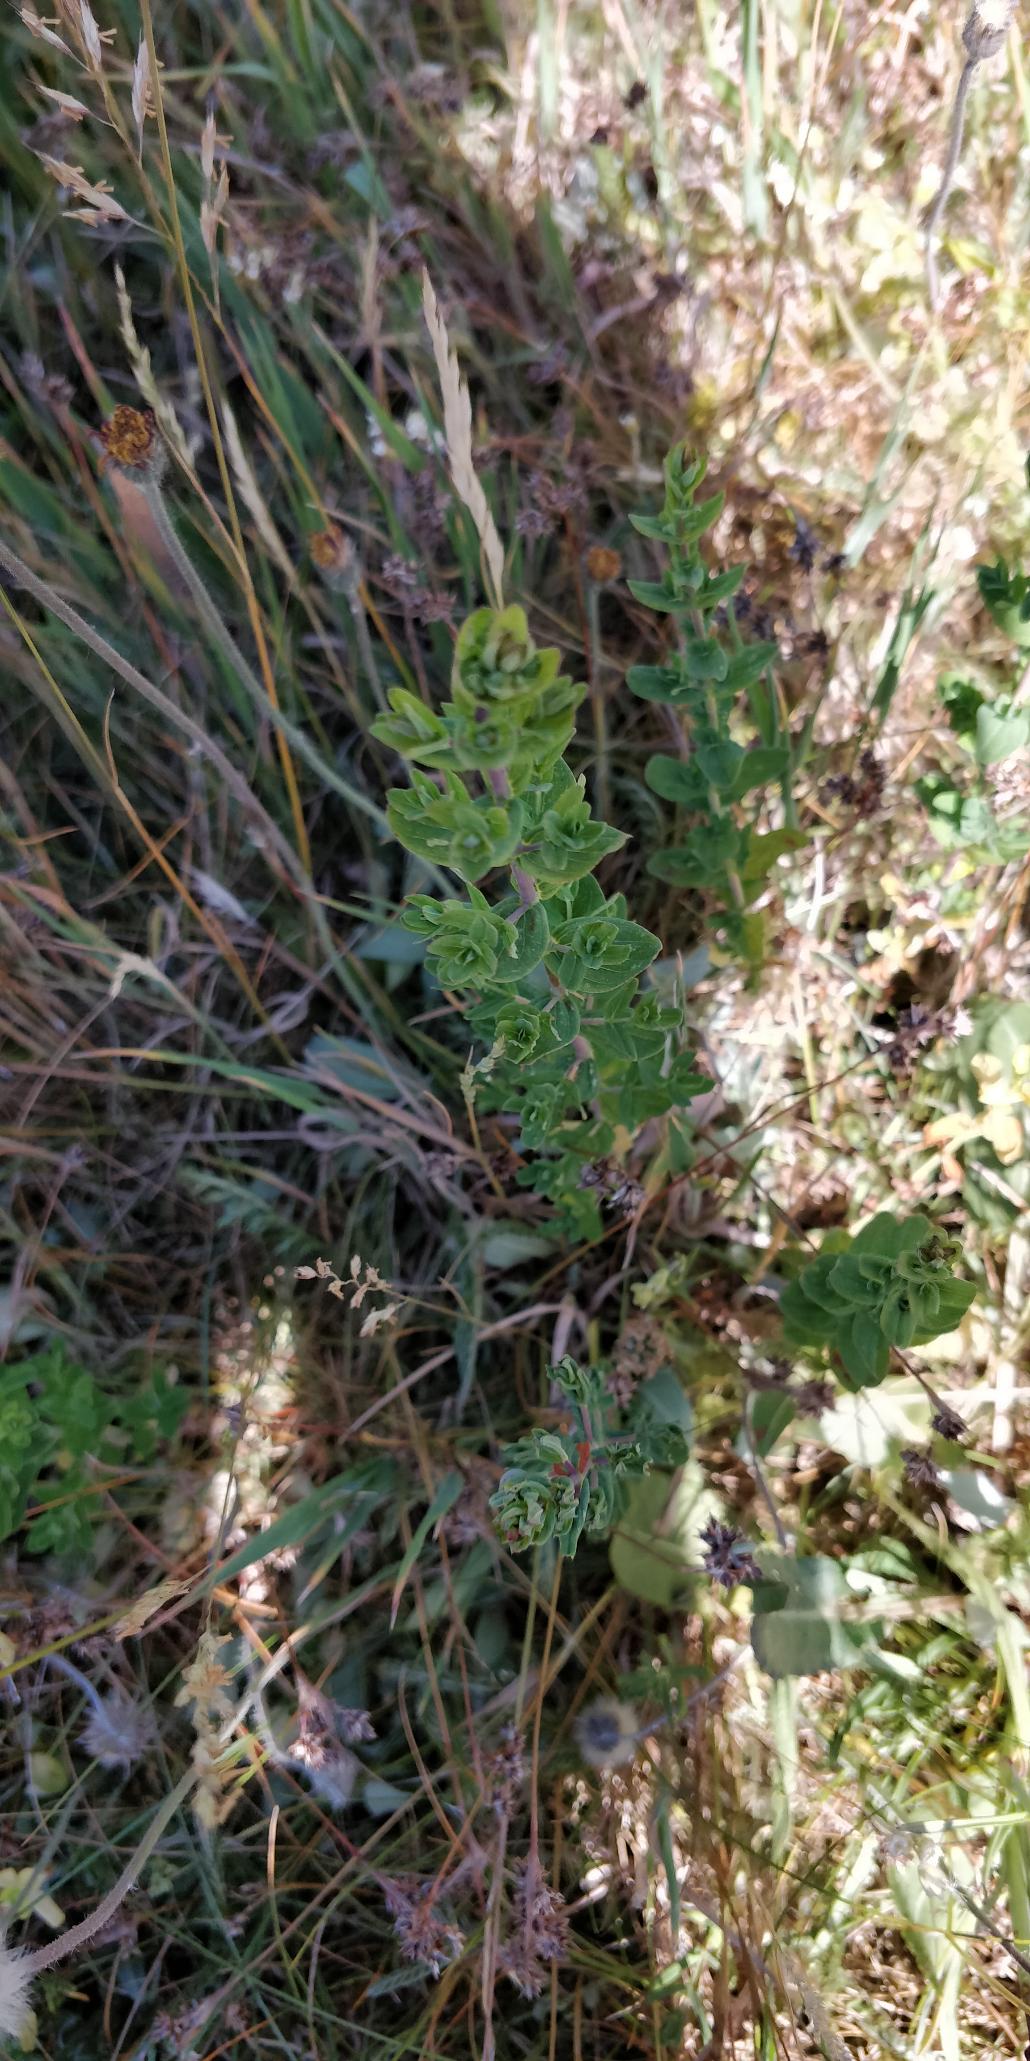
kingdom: Plantae
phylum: Tracheophyta
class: Magnoliopsida
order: Malpighiales
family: Hypericaceae
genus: Hypericum
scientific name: Hypericum perforatum
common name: Prikbladet perikon
